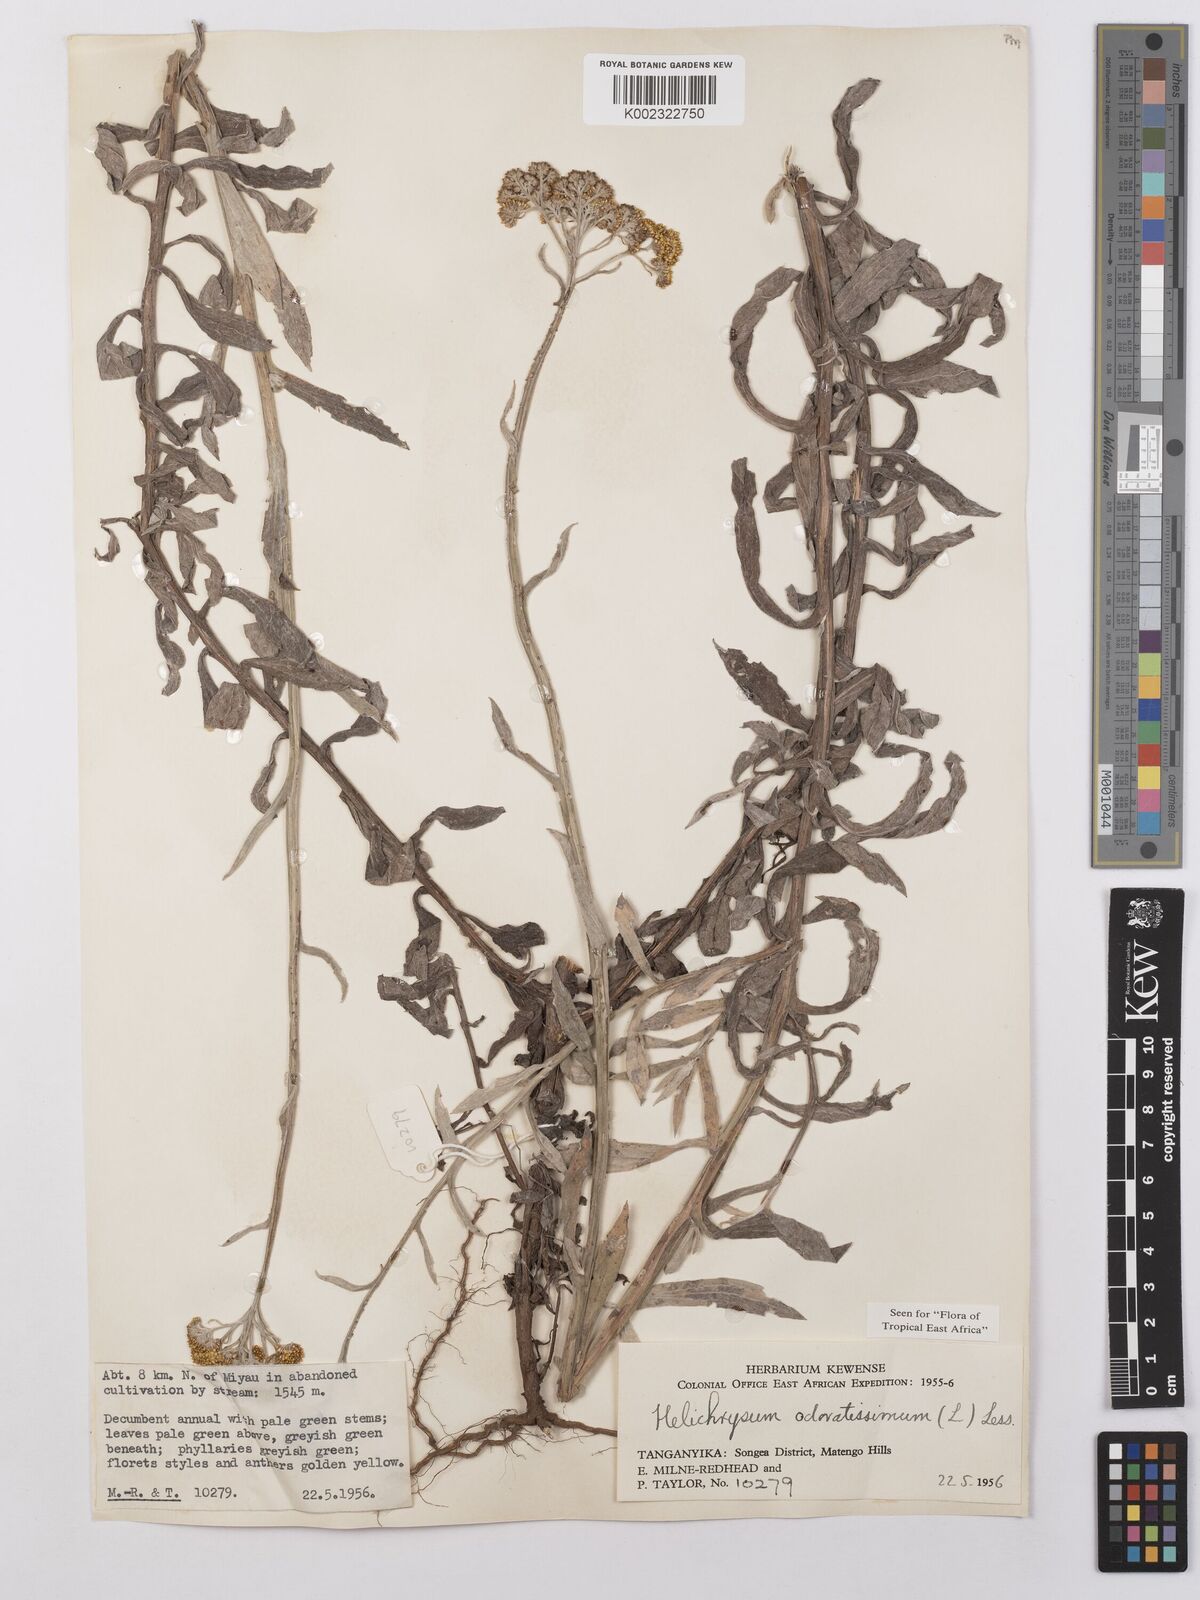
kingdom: Plantae
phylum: Tracheophyta
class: Magnoliopsida
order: Asterales
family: Asteraceae
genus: Helichrysum
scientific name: Helichrysum odoratissimum
